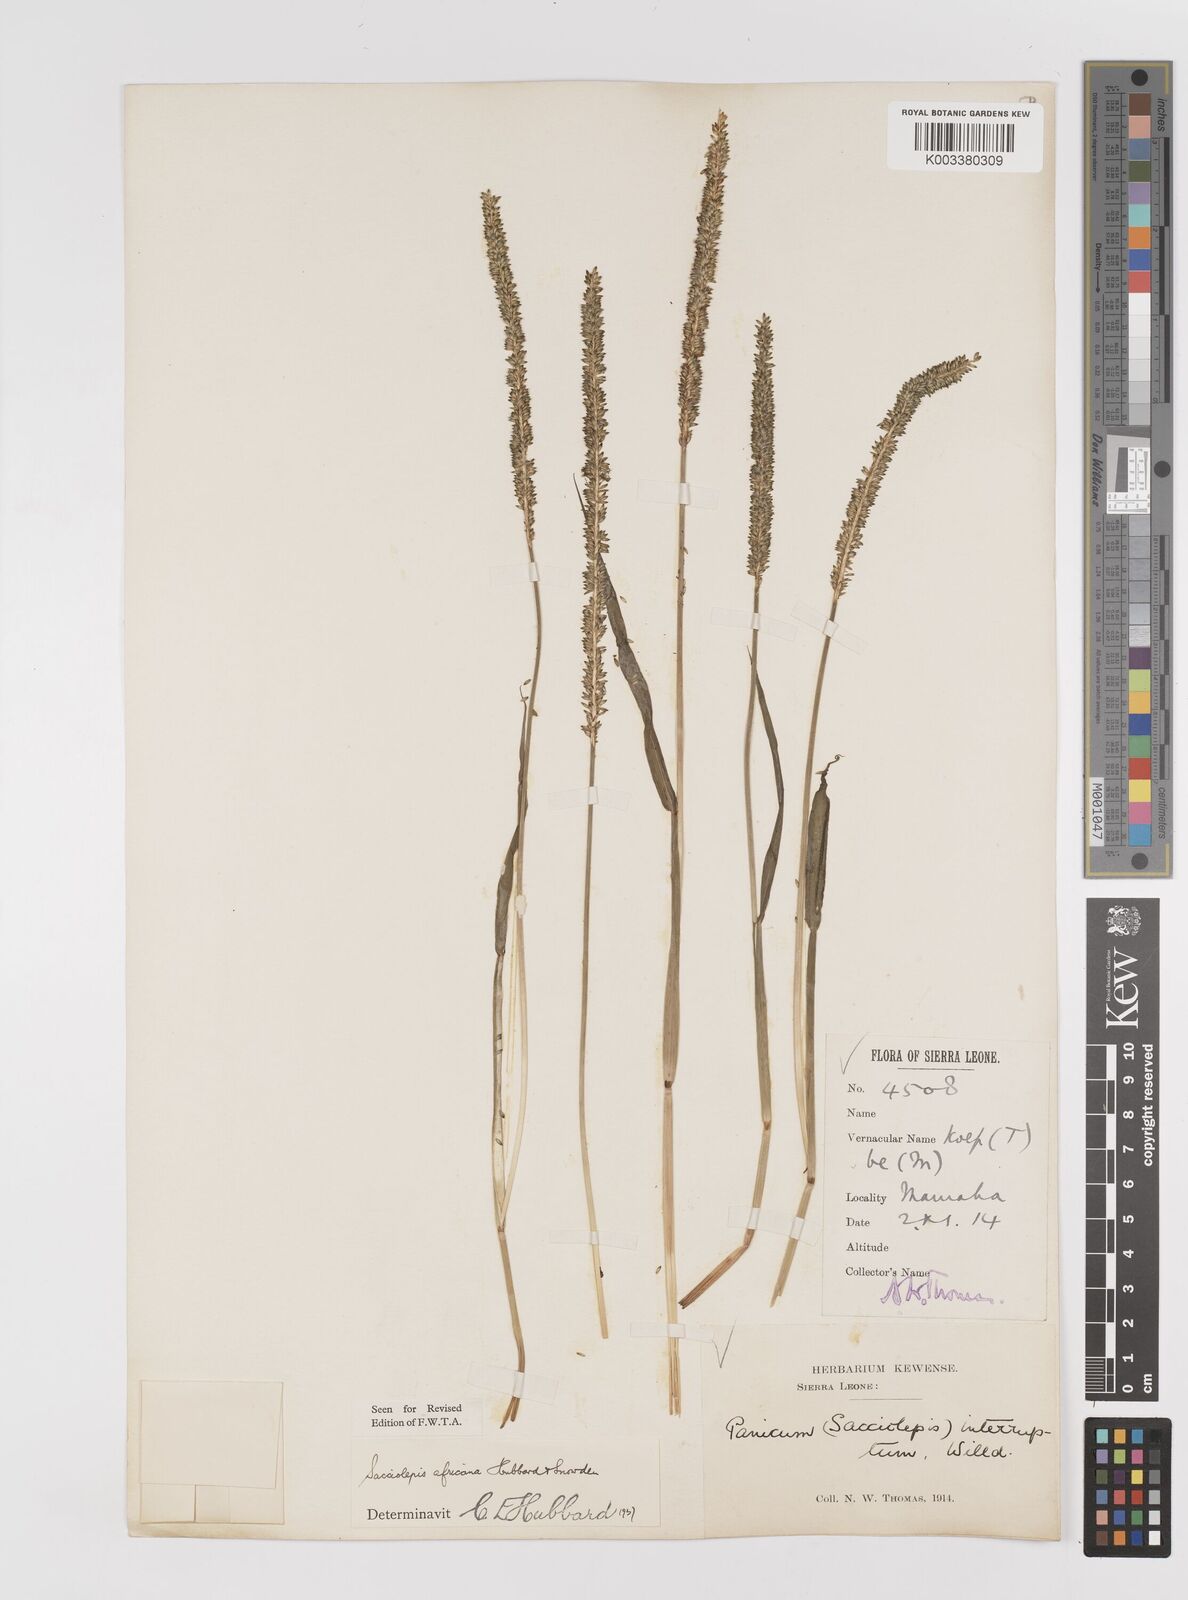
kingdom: Plantae
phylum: Tracheophyta
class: Liliopsida
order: Poales
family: Poaceae
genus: Sacciolepis
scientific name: Sacciolepis africana
